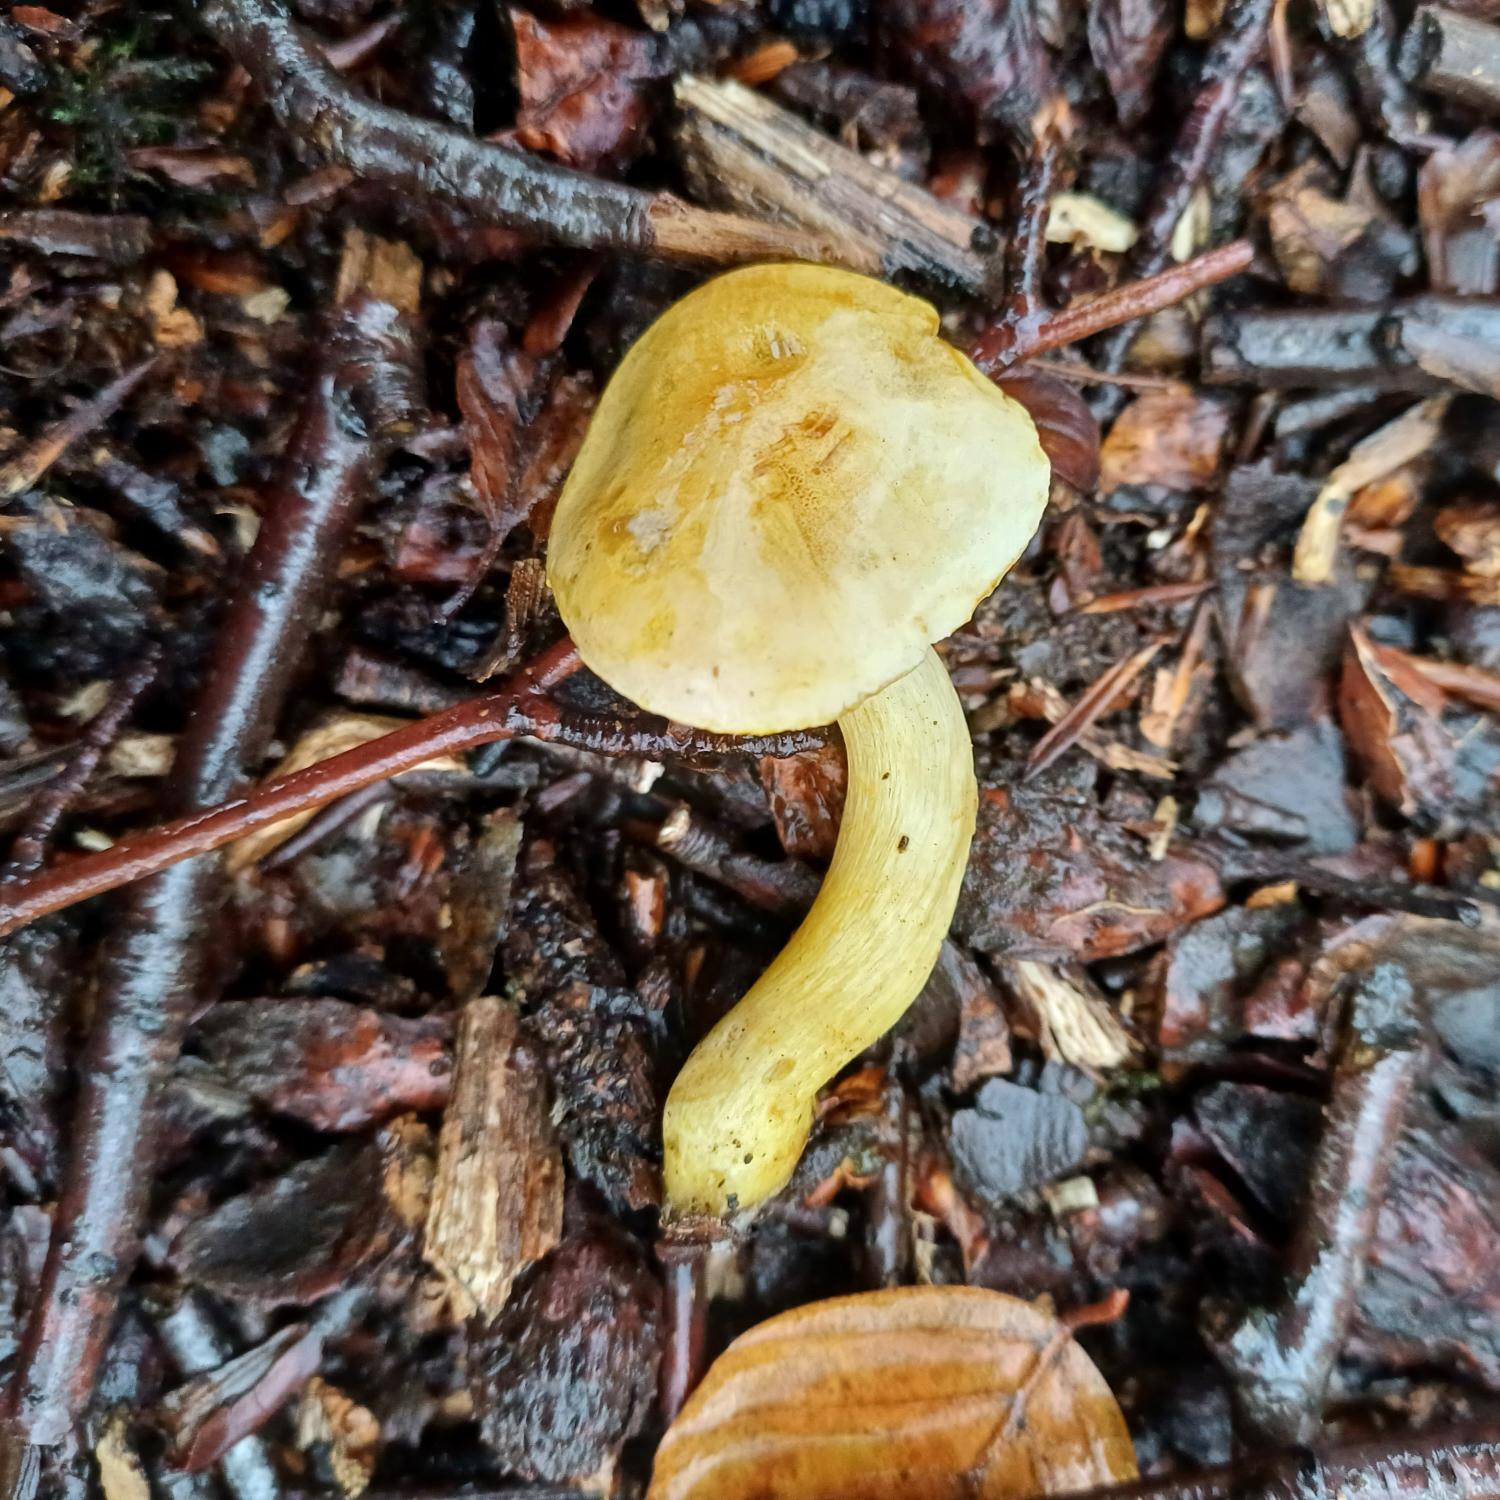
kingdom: Fungi
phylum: Basidiomycota
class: Agaricomycetes
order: Agaricales
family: Tricholomataceae
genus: Tricholoma
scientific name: Tricholoma sulphureum
